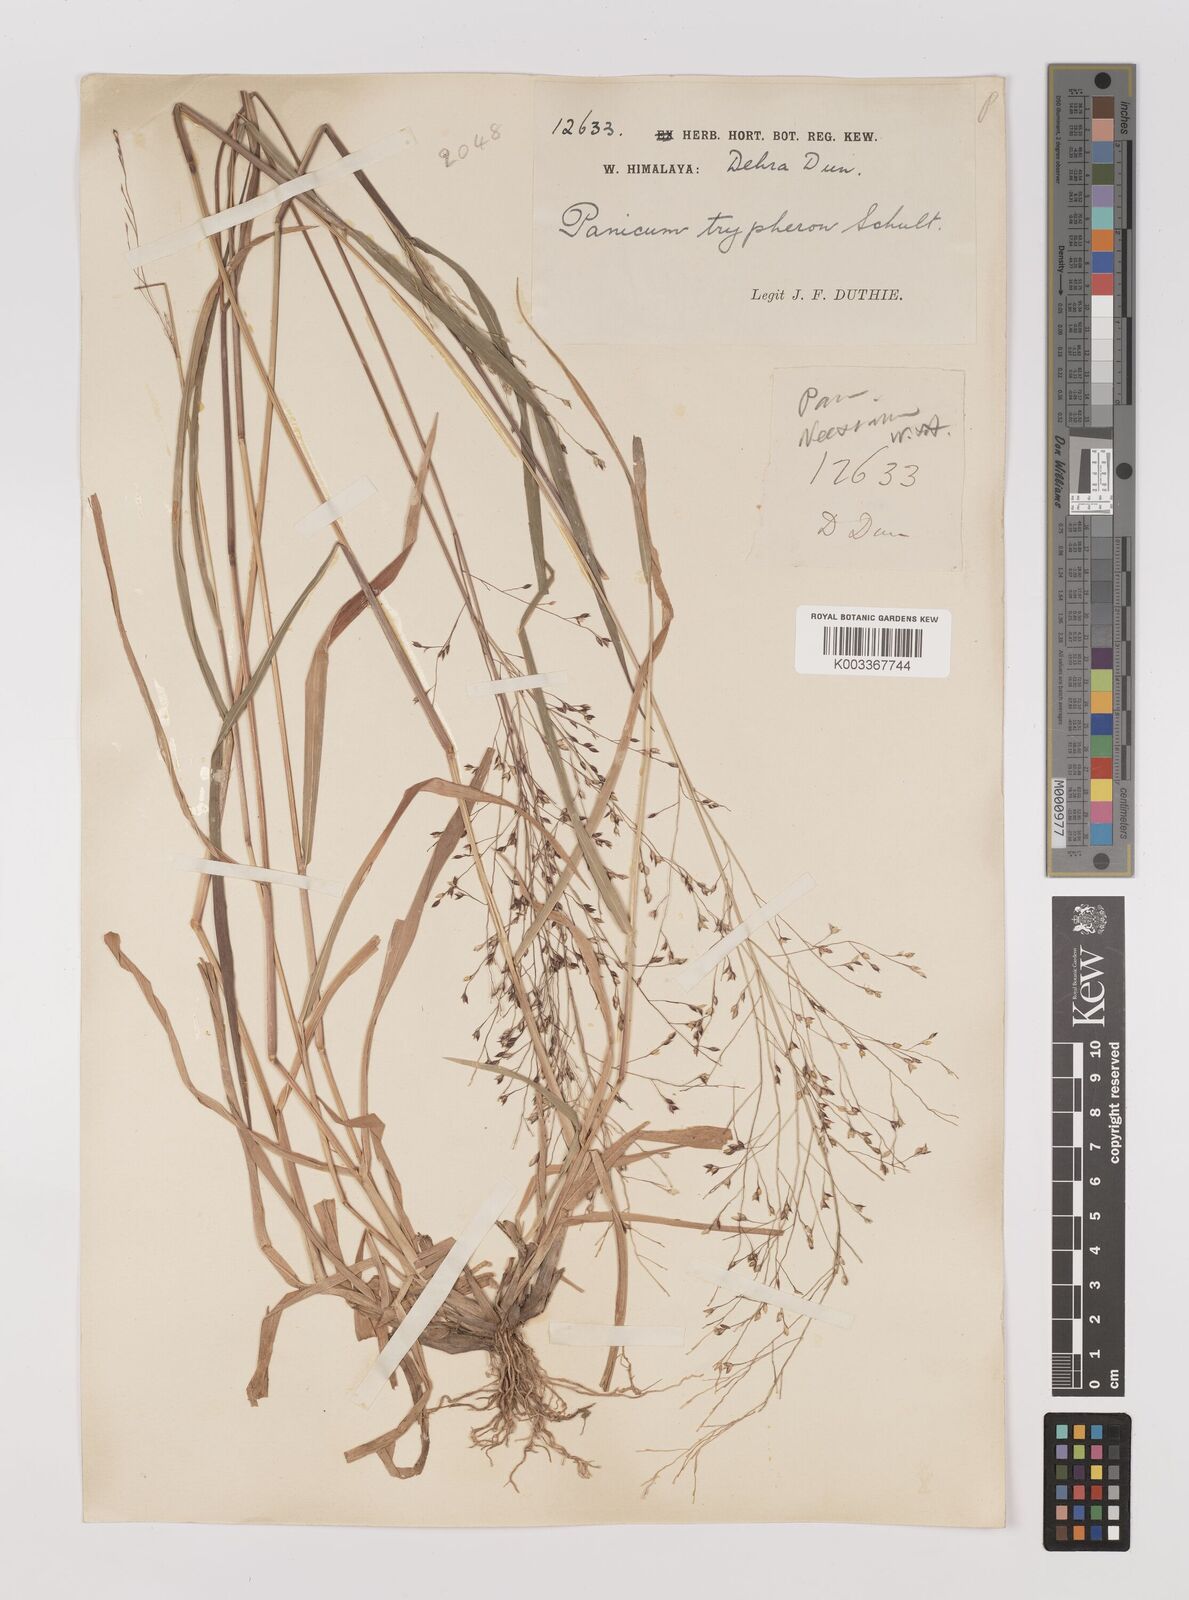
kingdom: Plantae
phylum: Tracheophyta
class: Liliopsida
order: Poales
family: Poaceae
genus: Panicum
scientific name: Panicum curviflorum
